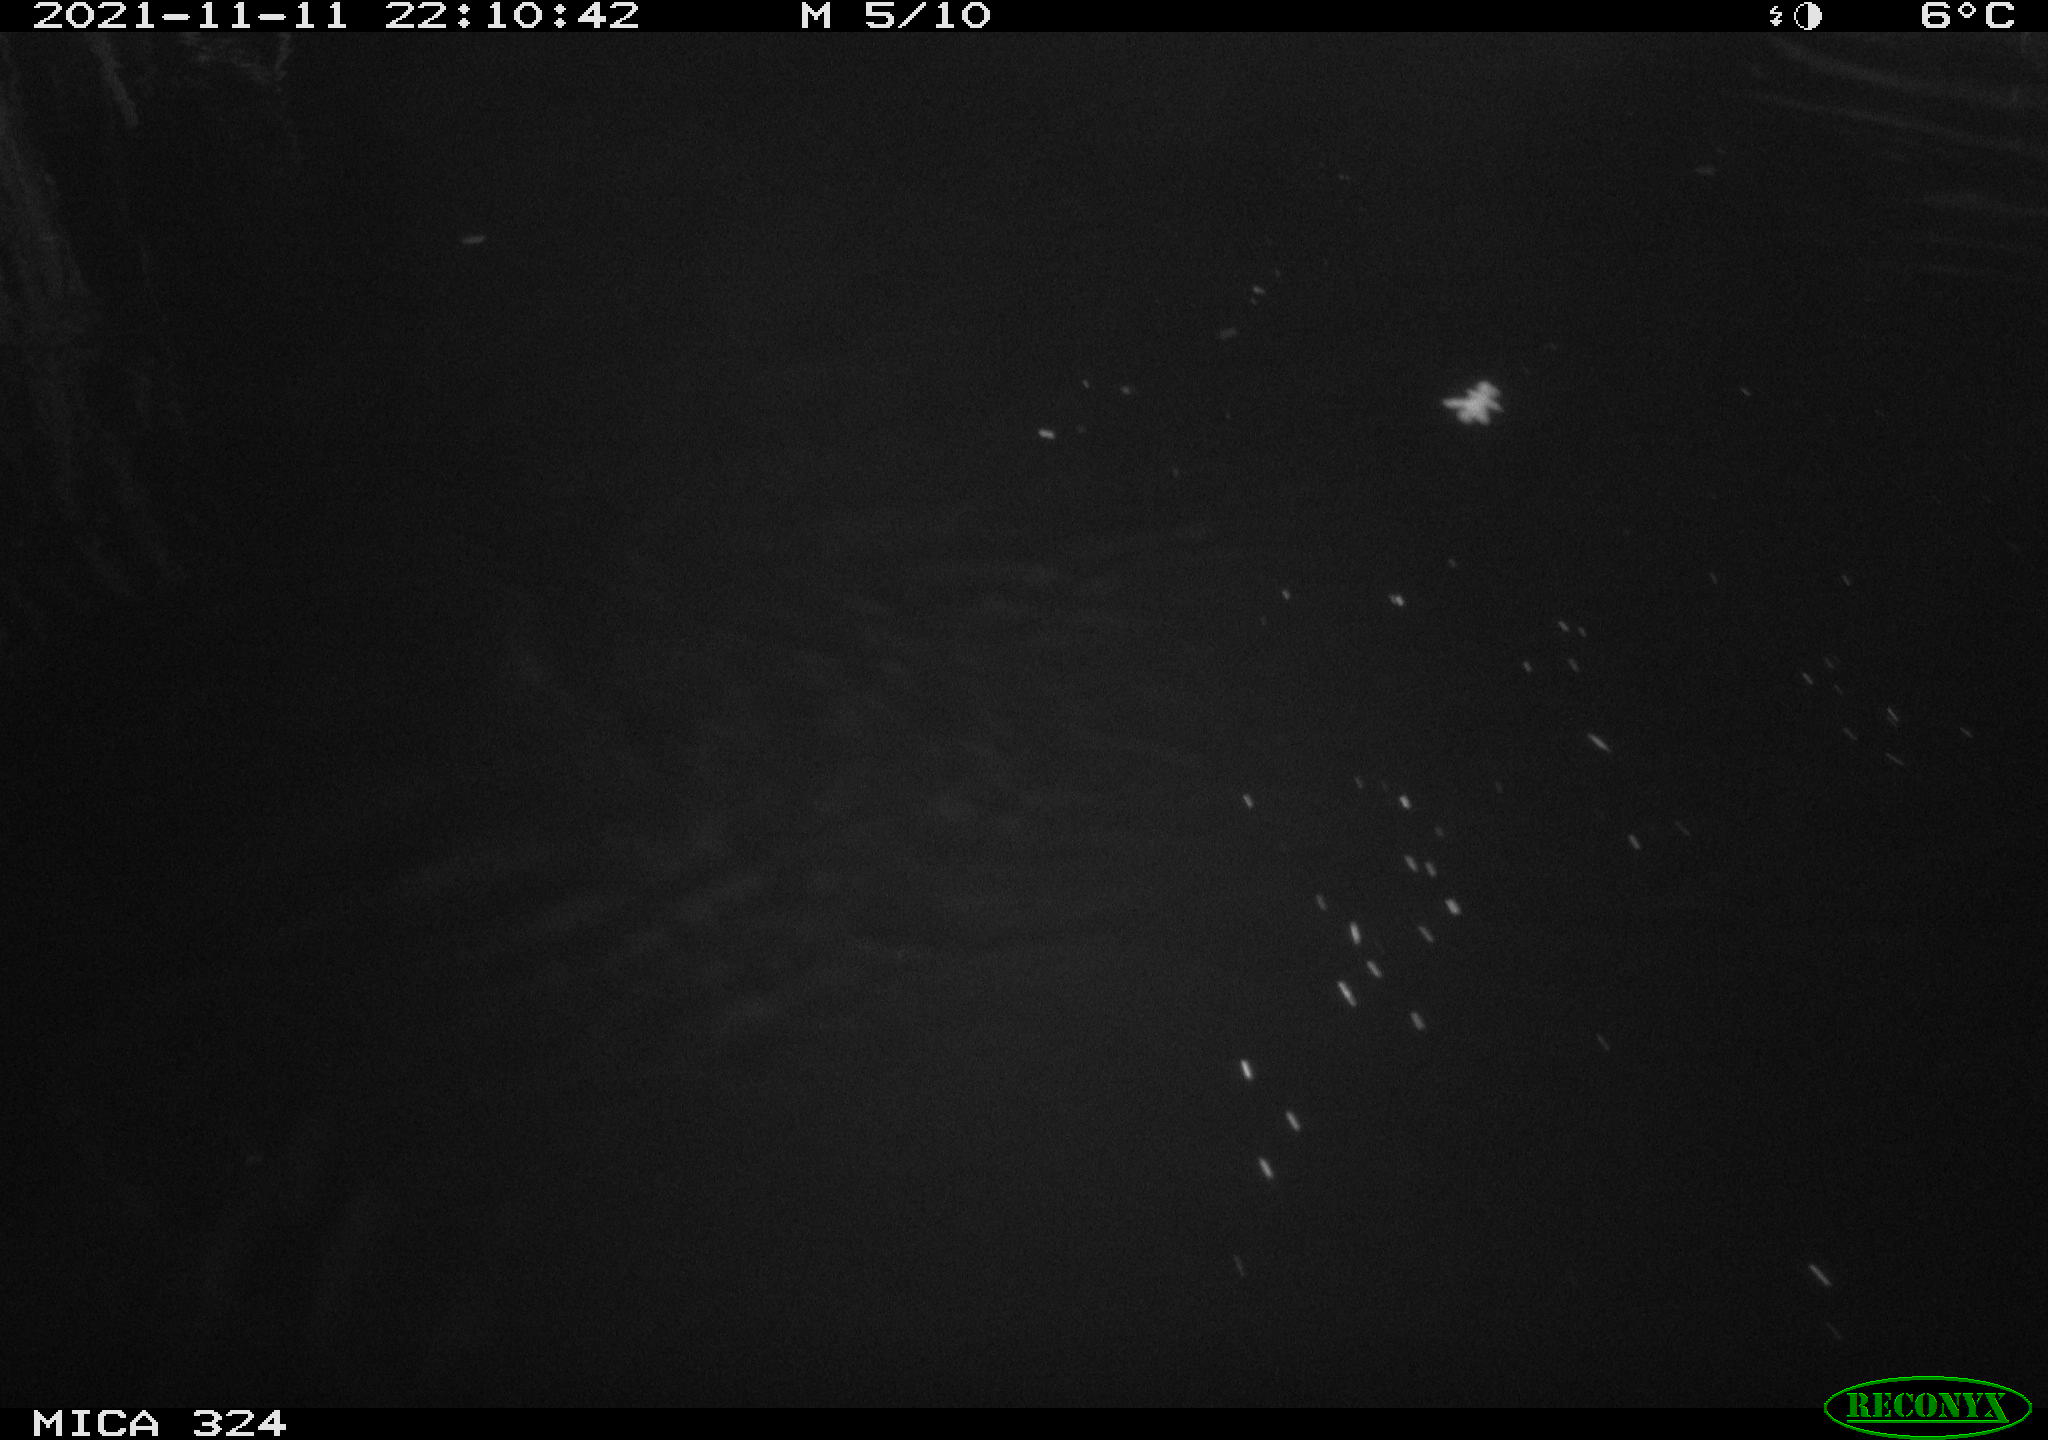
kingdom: Animalia
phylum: Chordata
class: Mammalia
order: Rodentia
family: Cricetidae
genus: Ondatra
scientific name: Ondatra zibethicus
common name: Muskrat
